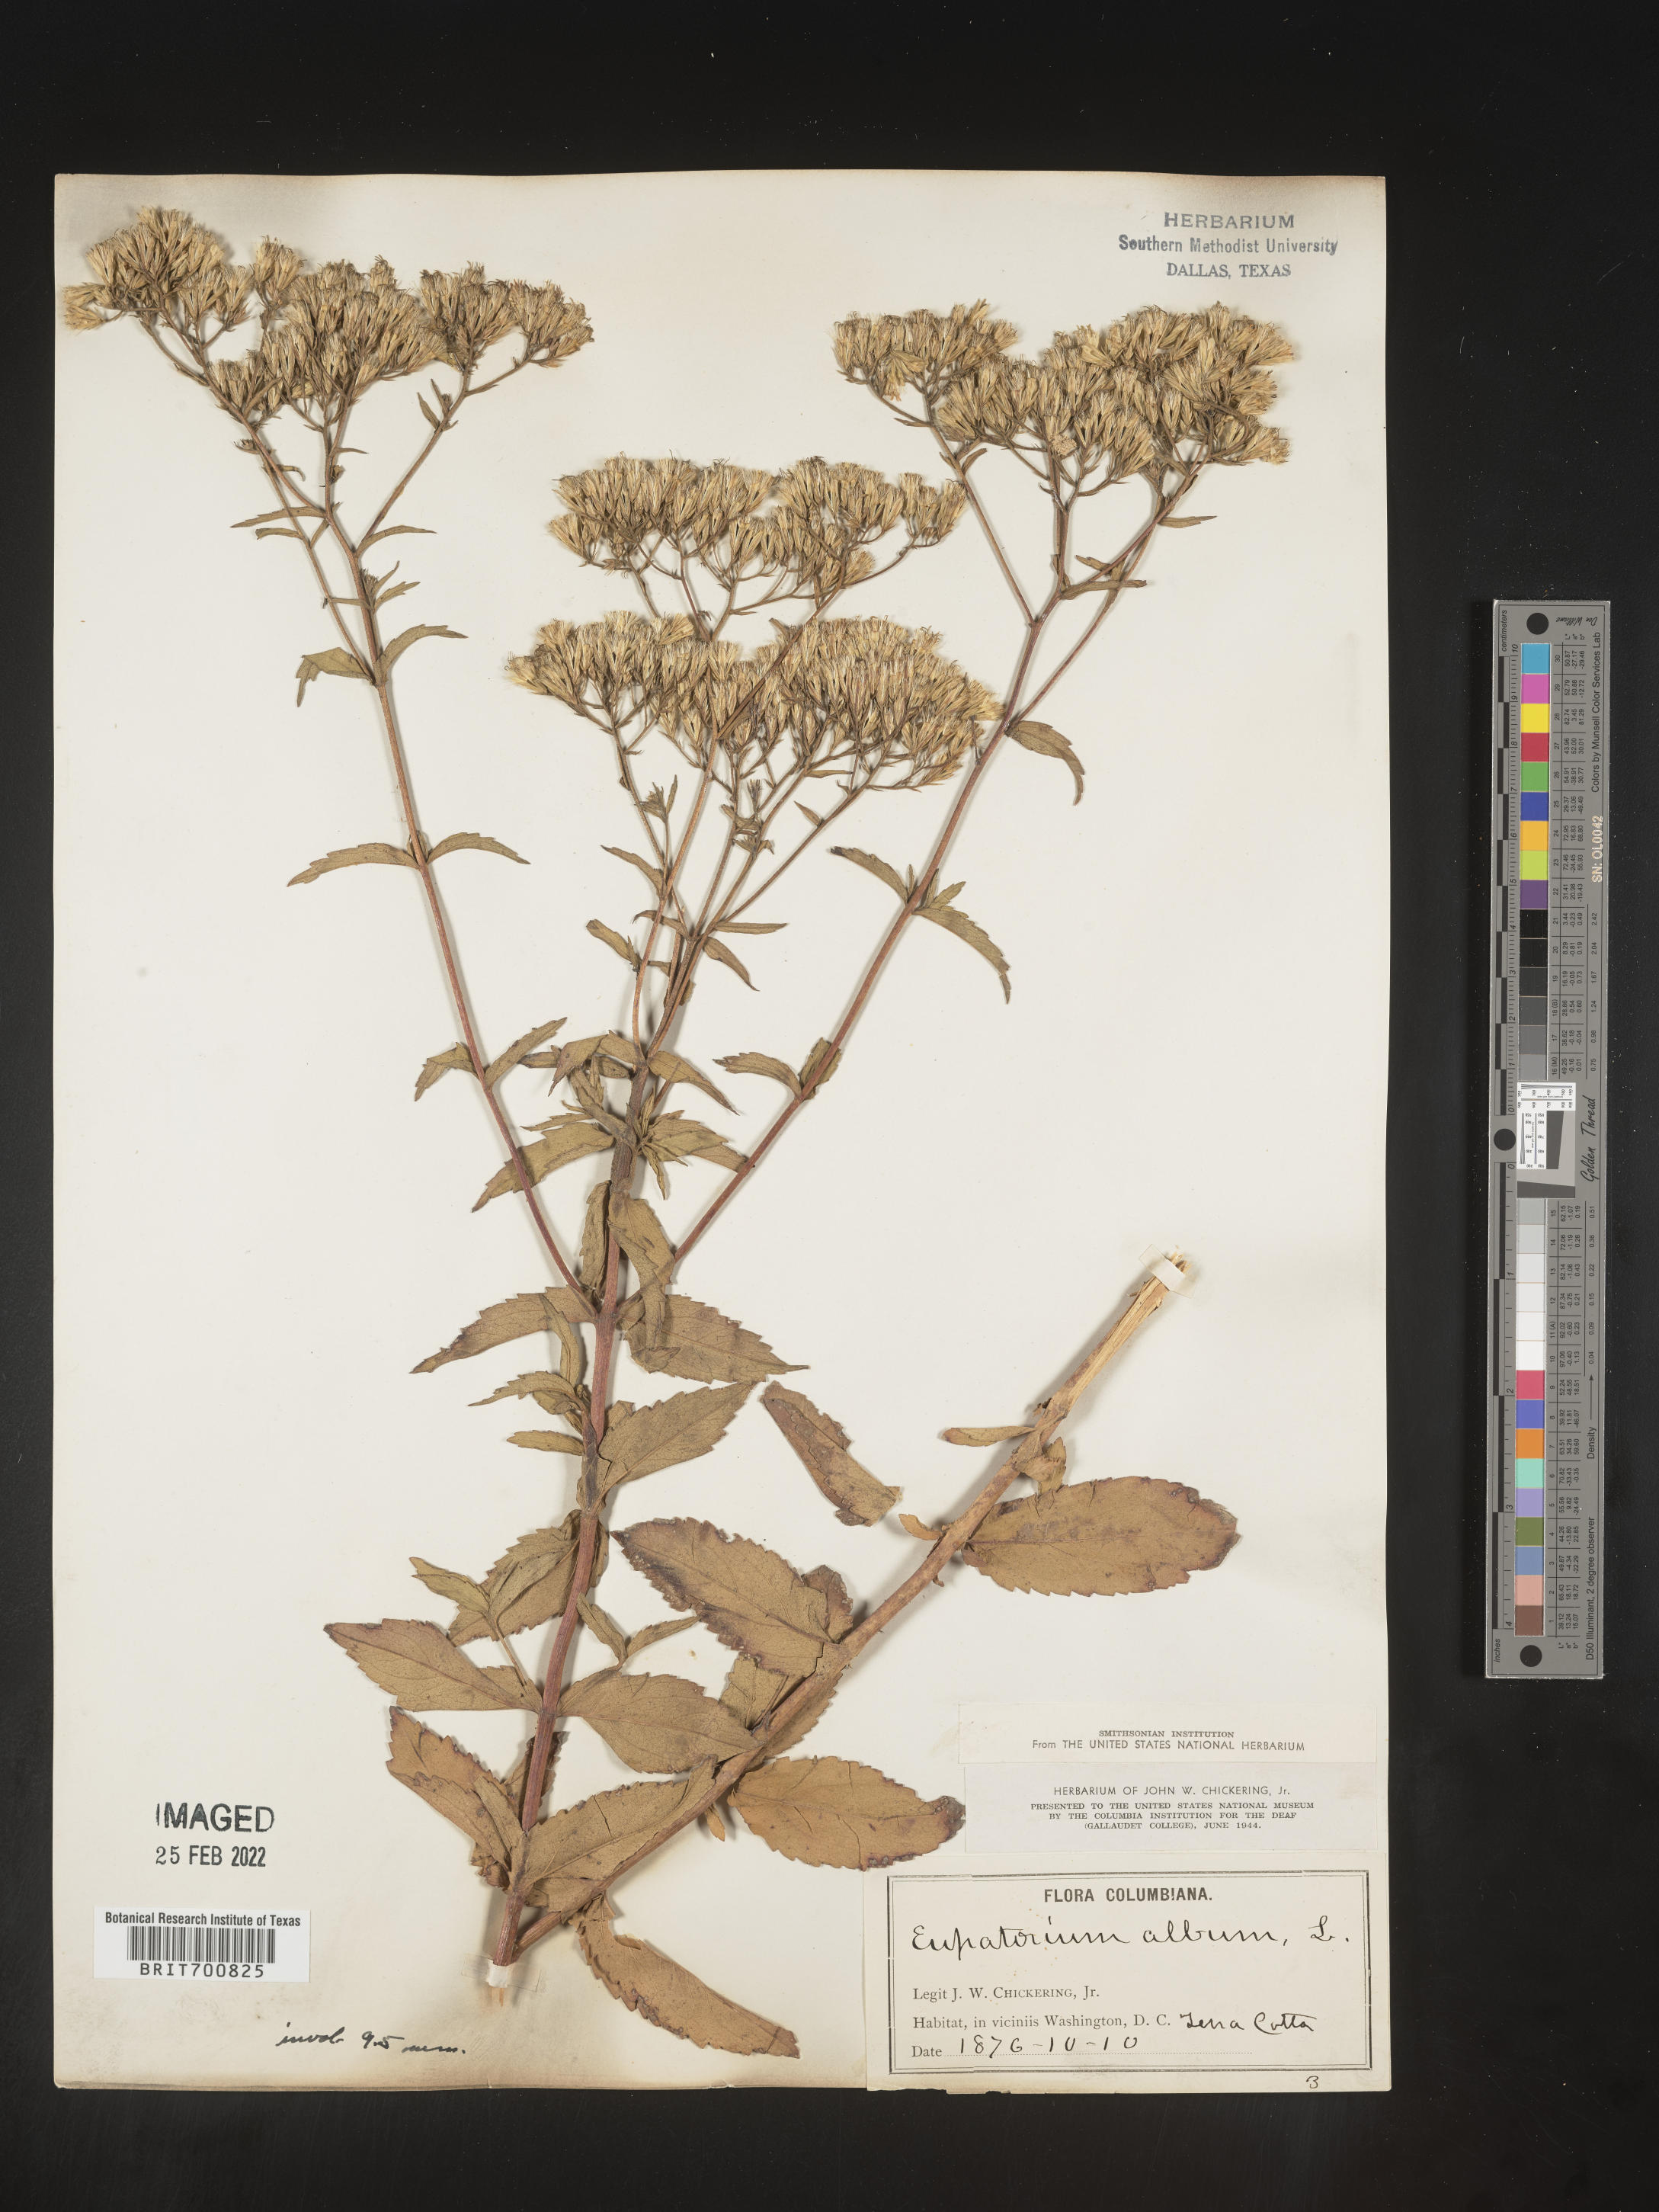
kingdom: Plantae
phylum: Tracheophyta
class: Magnoliopsida
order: Asterales
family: Asteraceae
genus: Eupatorium
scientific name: Eupatorium album
